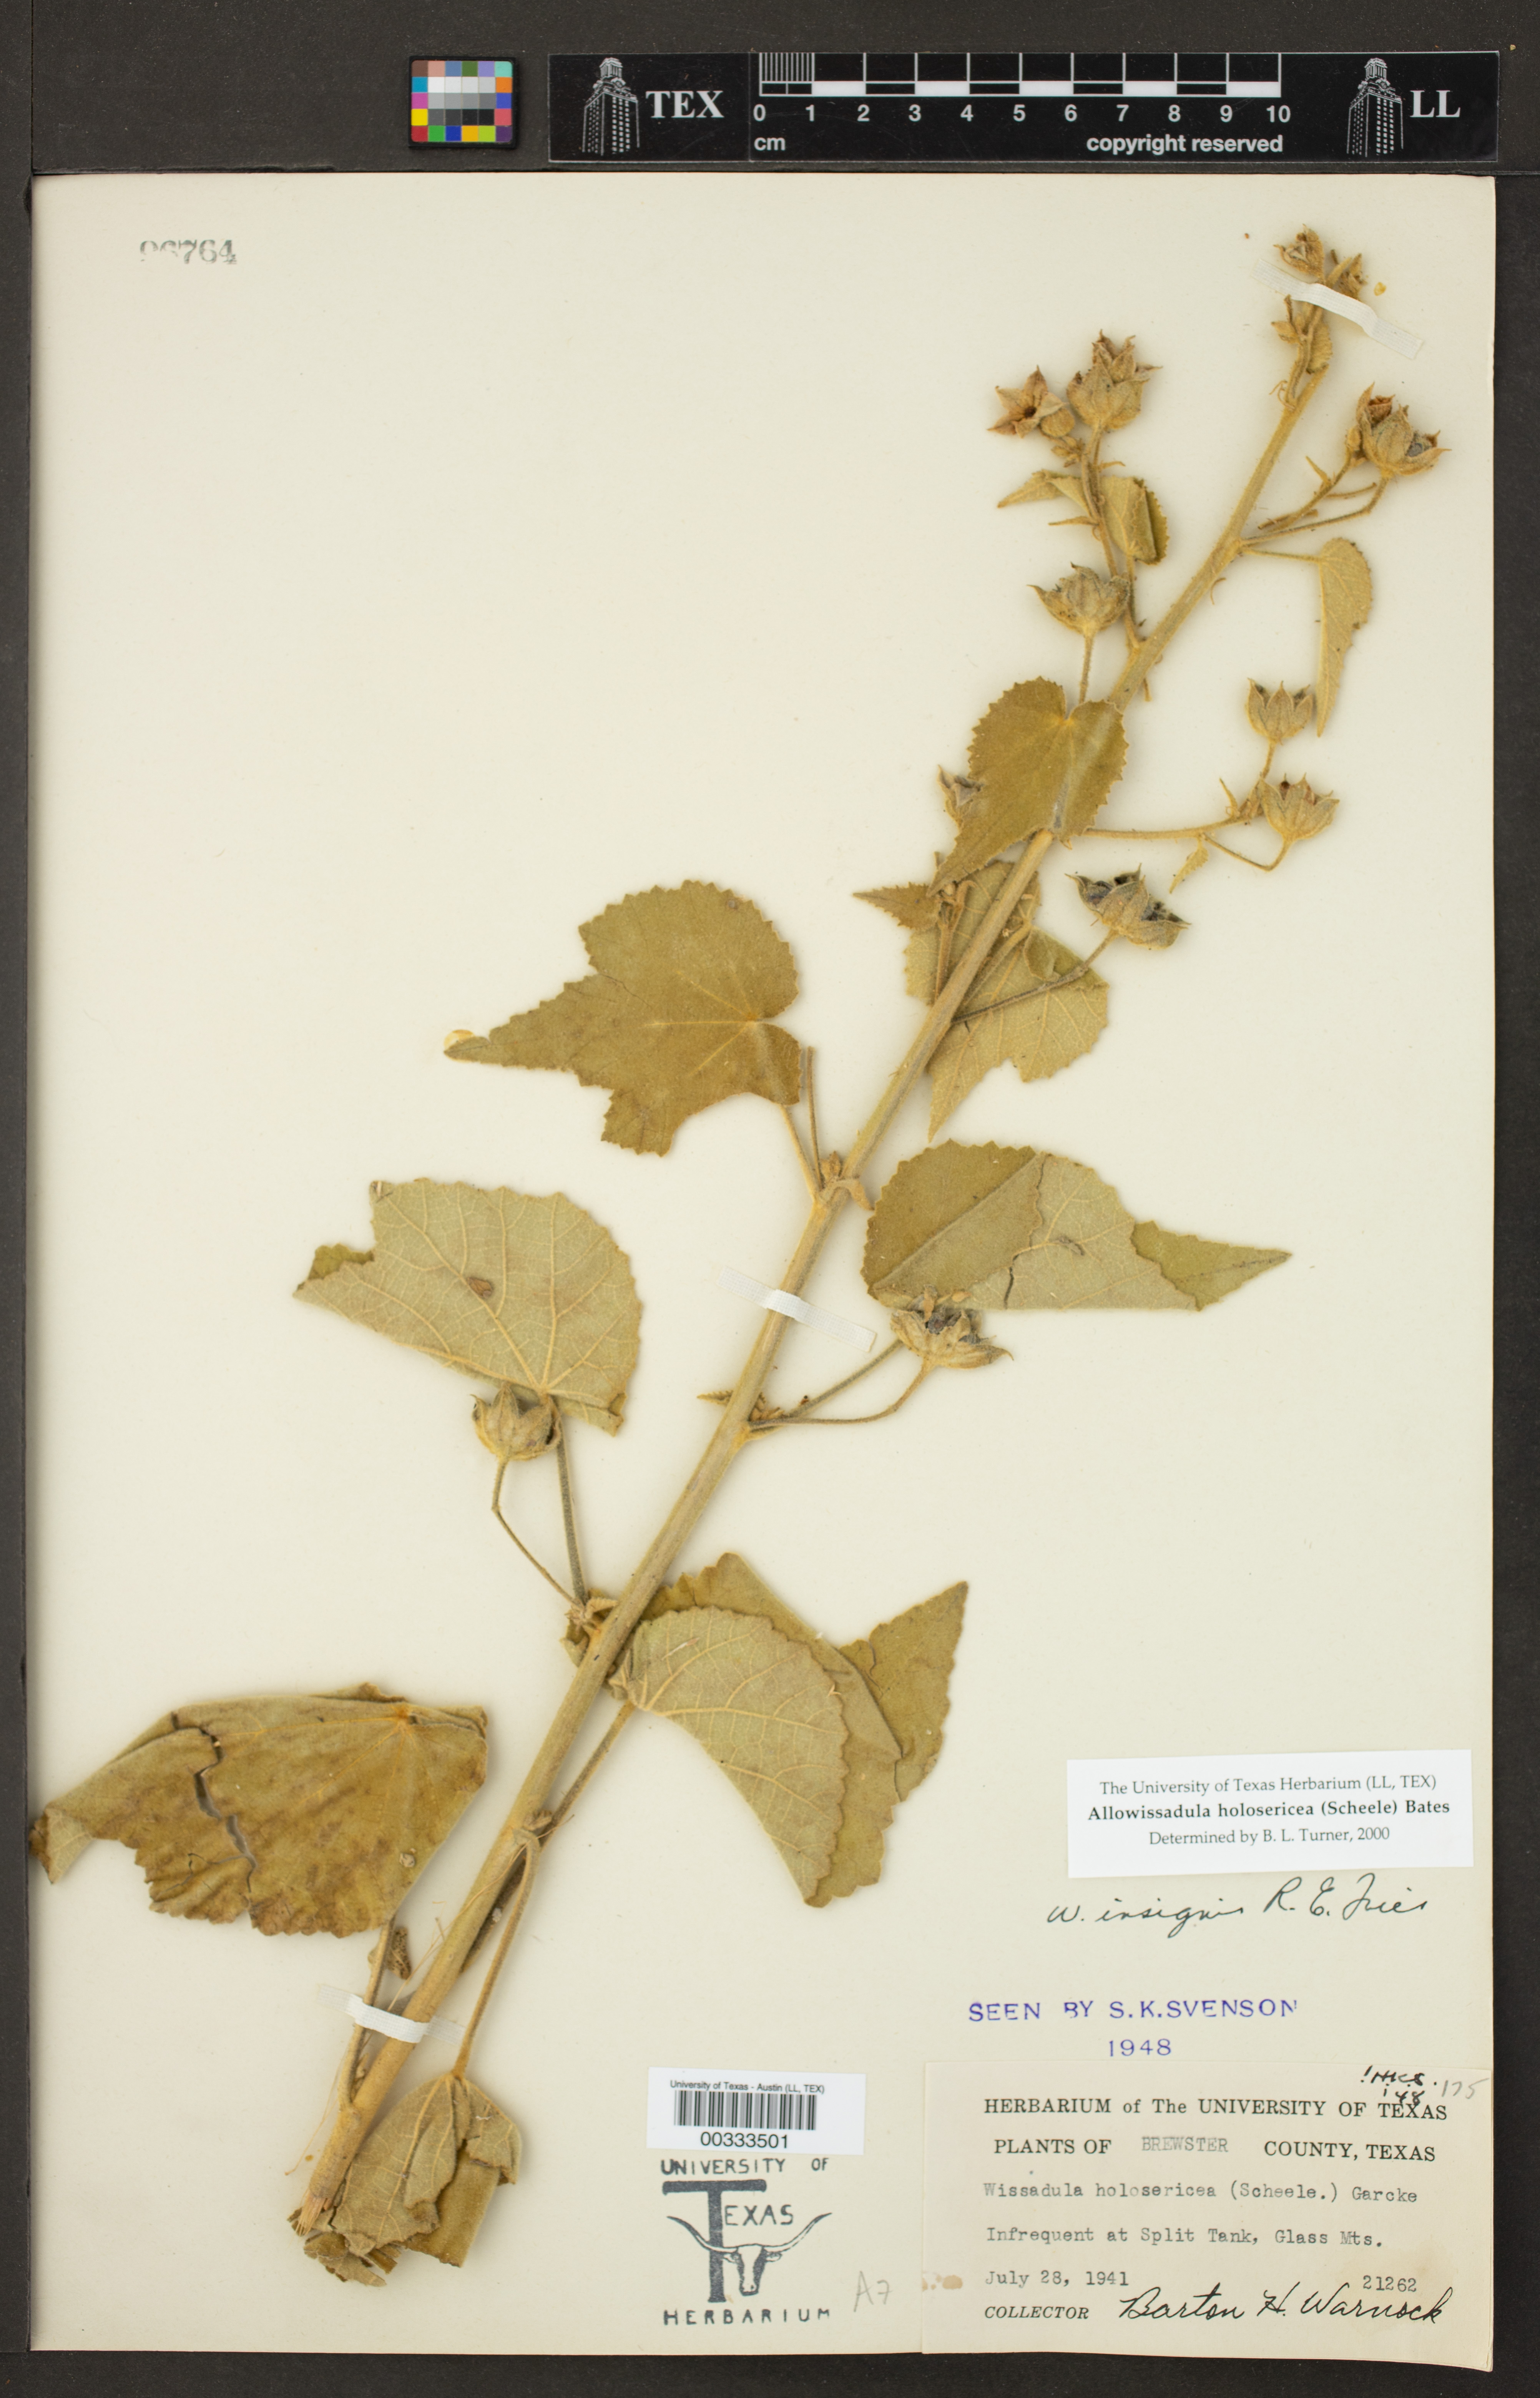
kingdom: Plantae
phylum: Tracheophyta
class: Magnoliopsida
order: Malvales
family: Malvaceae
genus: Allowissadula
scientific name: Allowissadula holosericea
